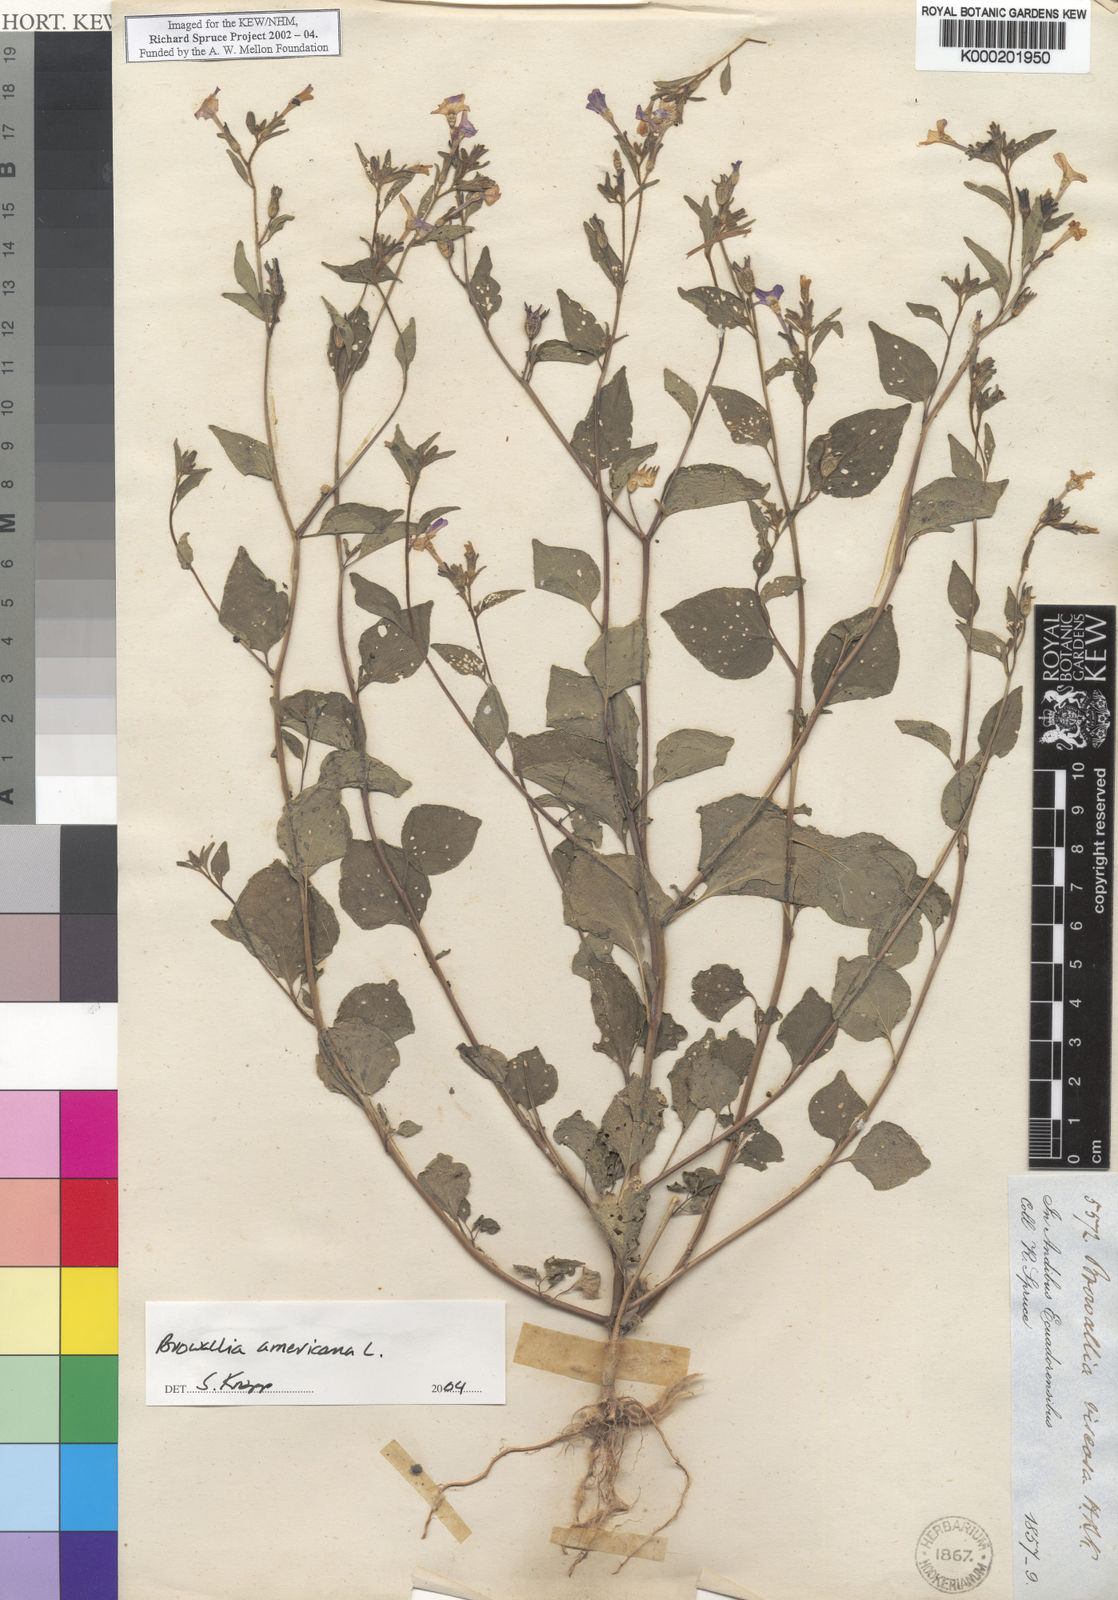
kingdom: Plantae
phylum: Tracheophyta
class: Magnoliopsida
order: Solanales
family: Solanaceae
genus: Browallia
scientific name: Browallia americana
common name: Jamaican forget-me-not
